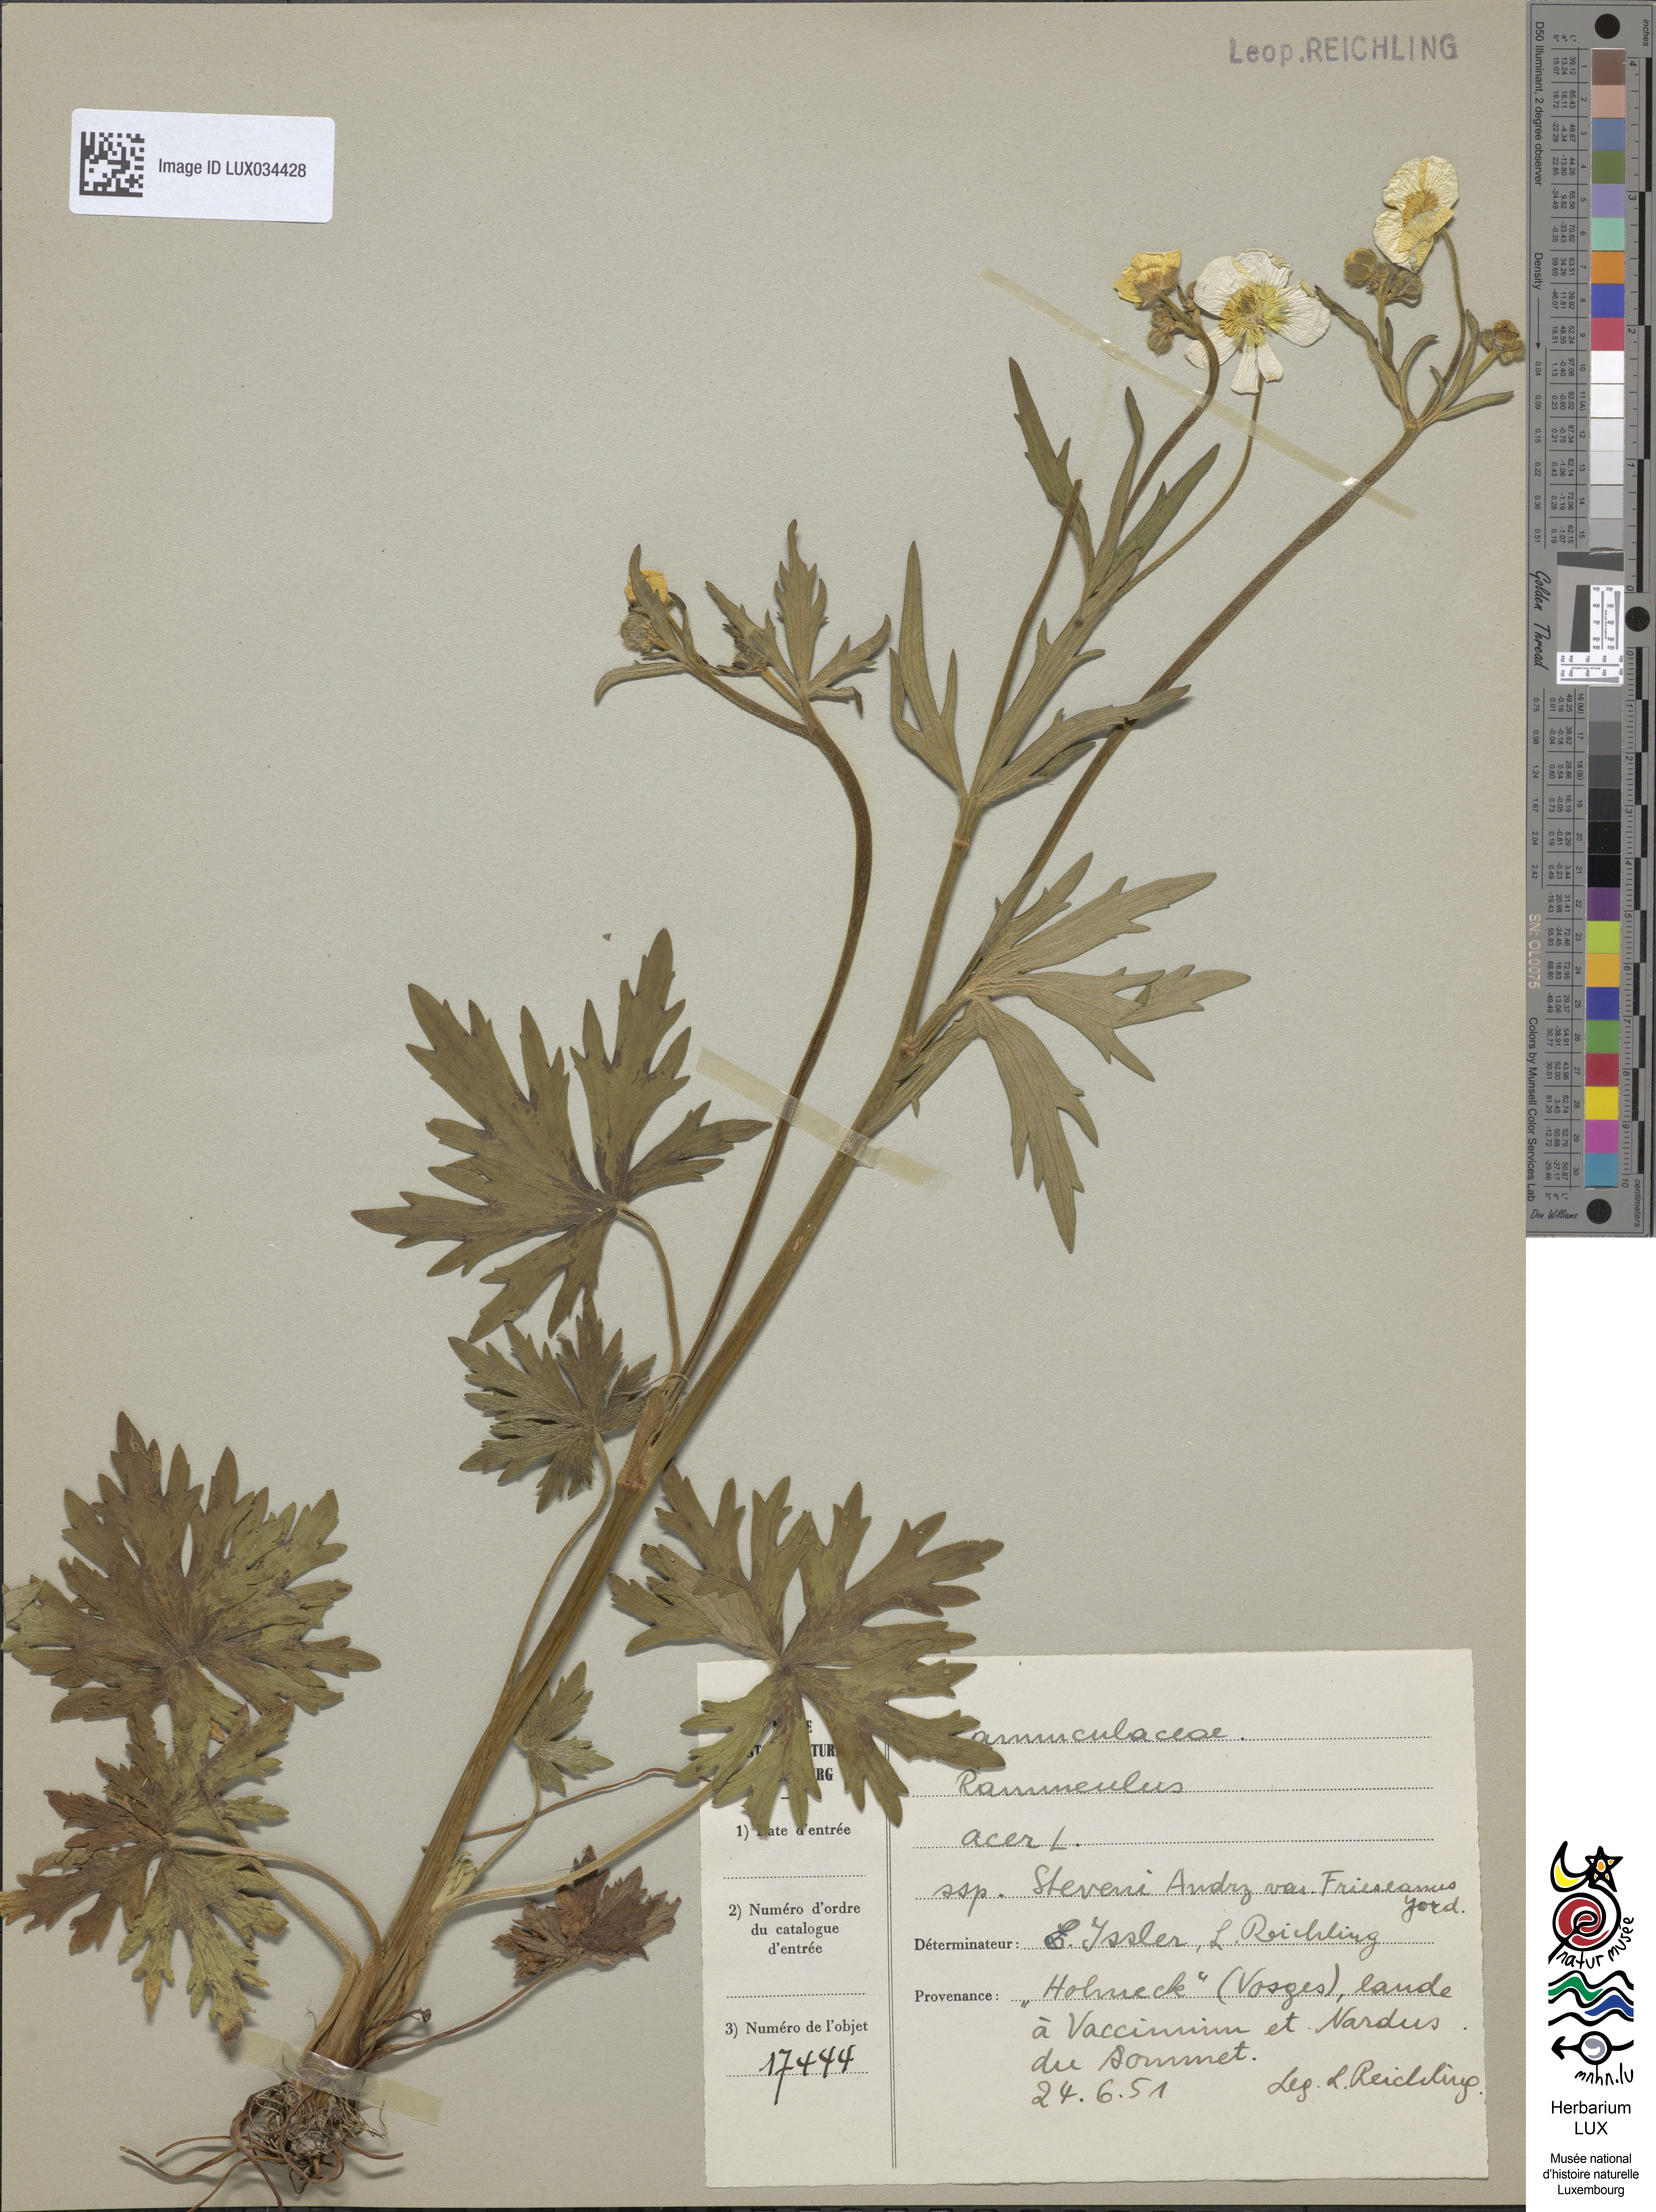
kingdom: Plantae
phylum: Tracheophyta
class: Magnoliopsida
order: Ranunculales
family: Ranunculaceae
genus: Ranunculus
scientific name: Ranunculus acris
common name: Meadow buttercup
